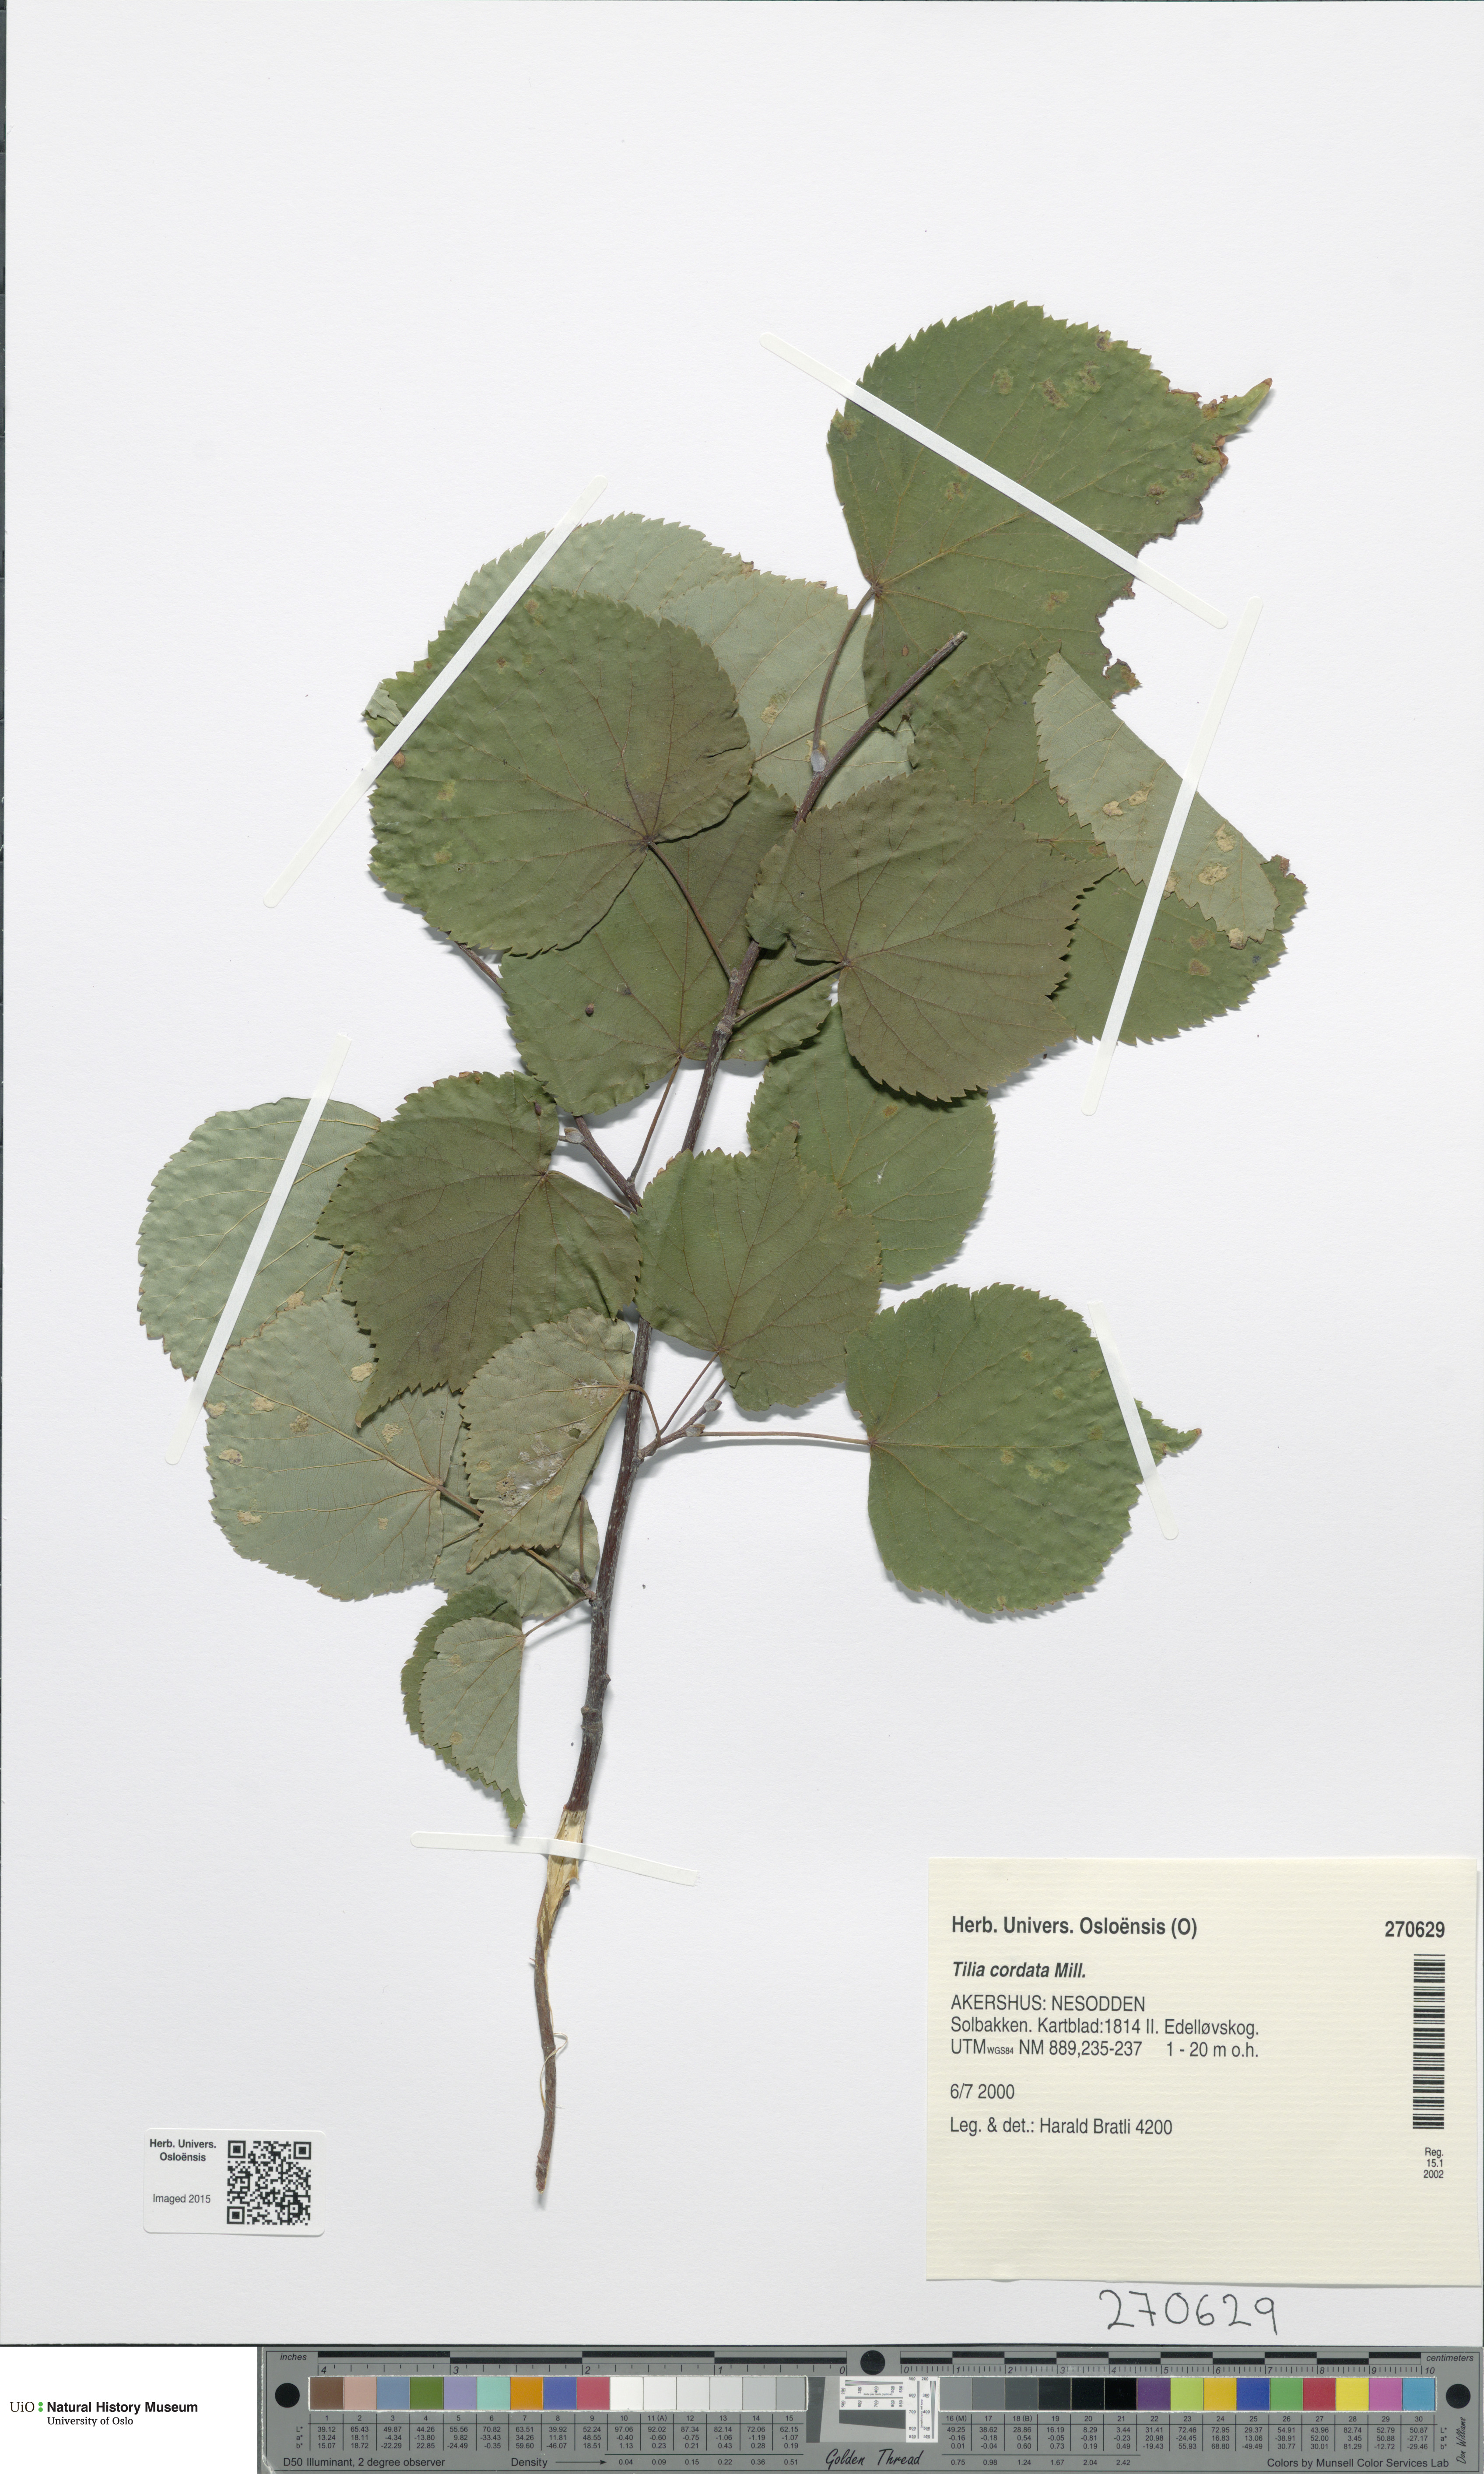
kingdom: Plantae
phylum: Tracheophyta
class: Magnoliopsida
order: Malvales
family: Malvaceae
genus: Tilia
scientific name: Tilia cordata
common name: Small-leaved lime
